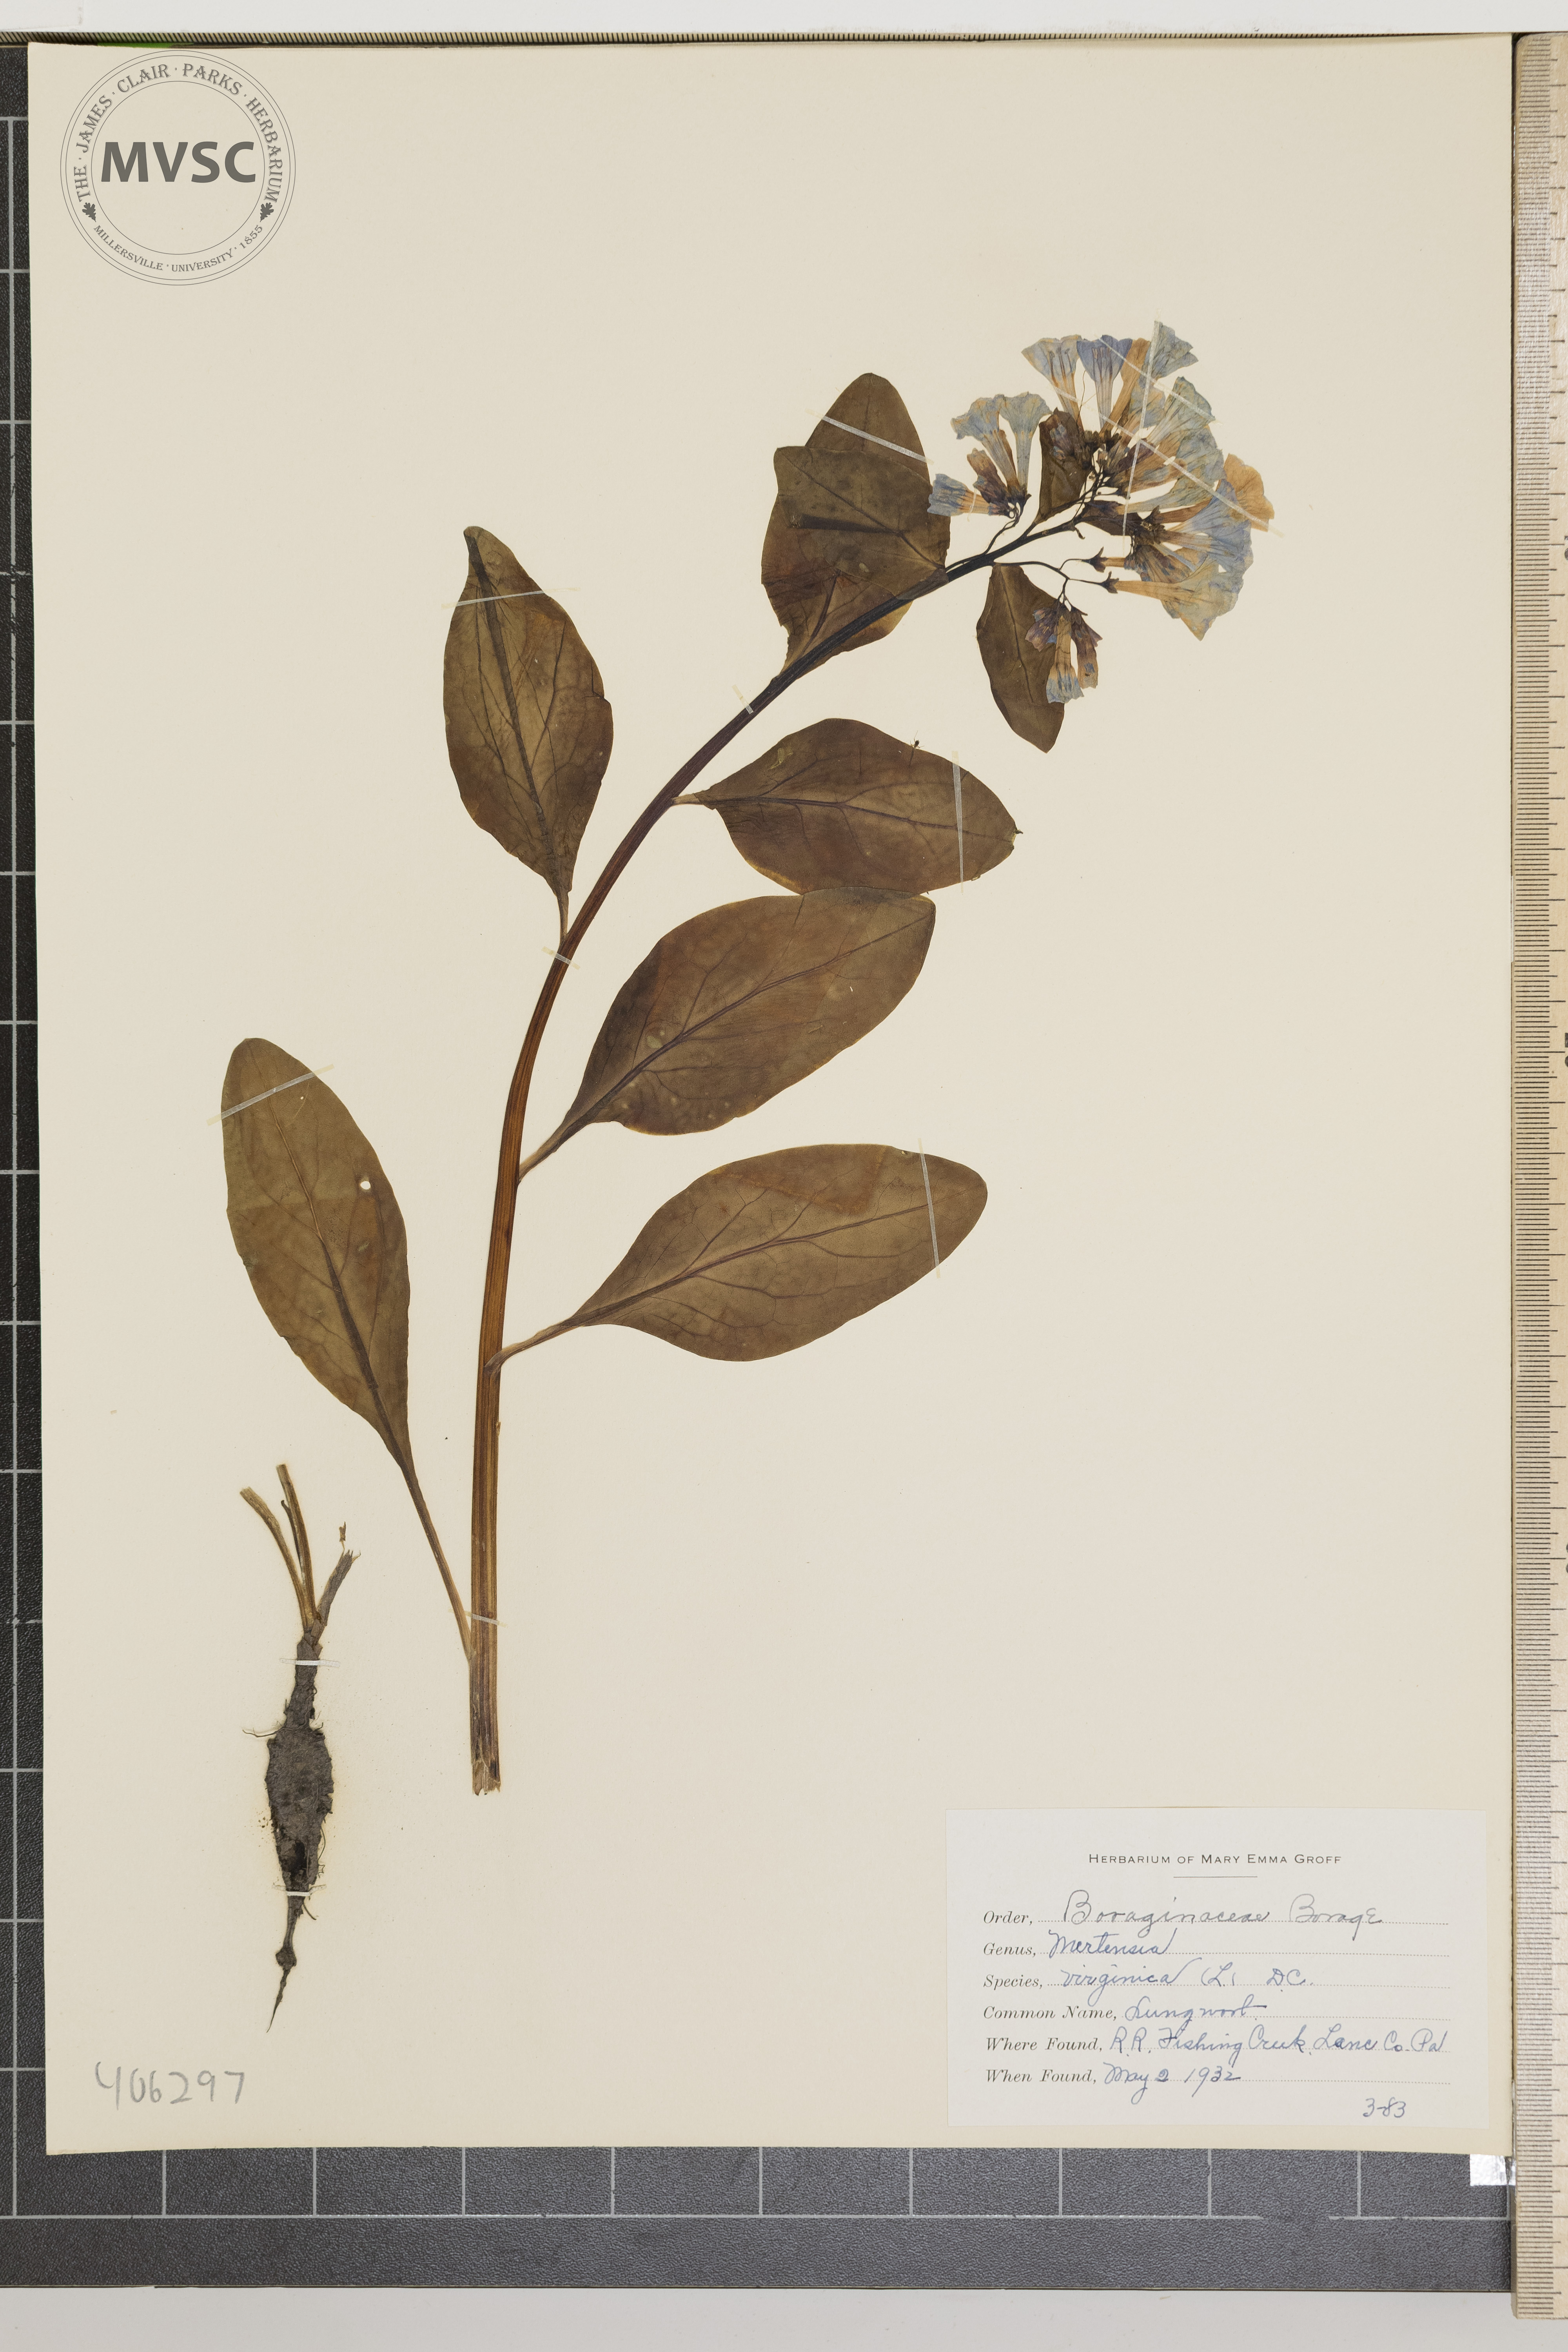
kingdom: Plantae
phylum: Tracheophyta
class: Magnoliopsida
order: Boraginales
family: Boraginaceae
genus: Mertensia
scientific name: Mertensia virginica
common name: Lungwort
